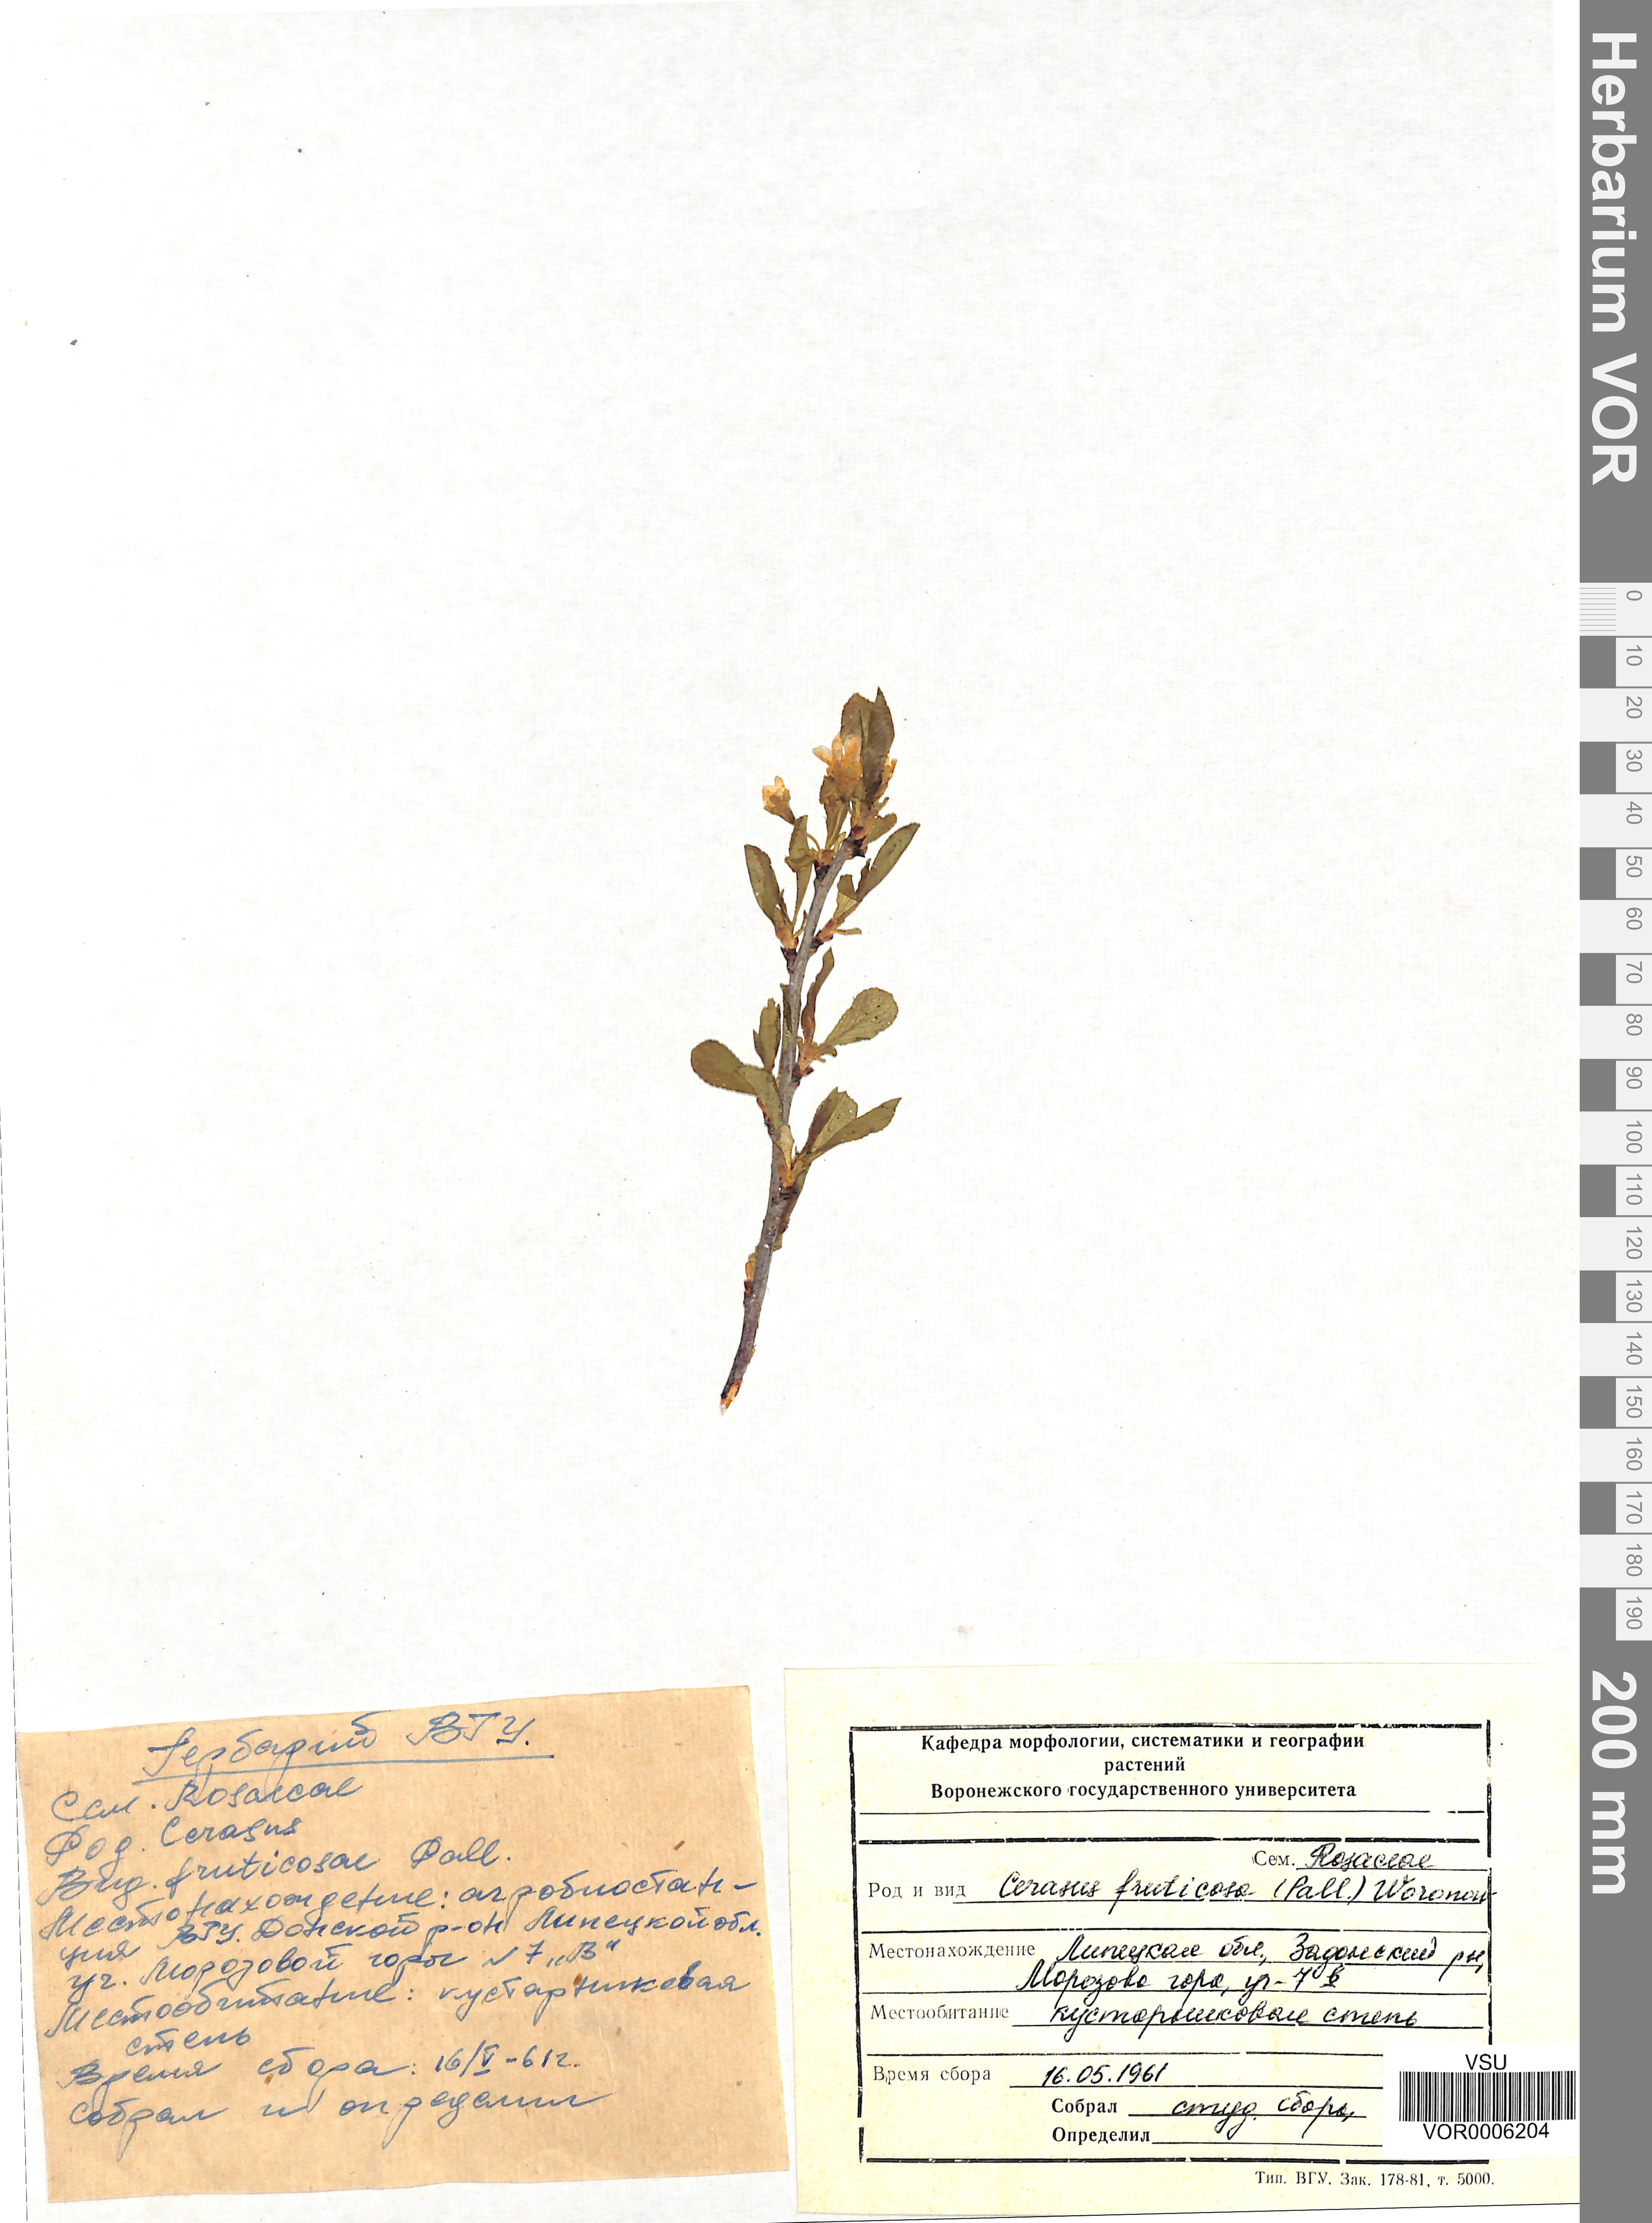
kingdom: Plantae
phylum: Tracheophyta
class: Magnoliopsida
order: Rosales
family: Rosaceae
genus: Prunus
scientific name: Prunus fruticosa
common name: European dwarf cherry
